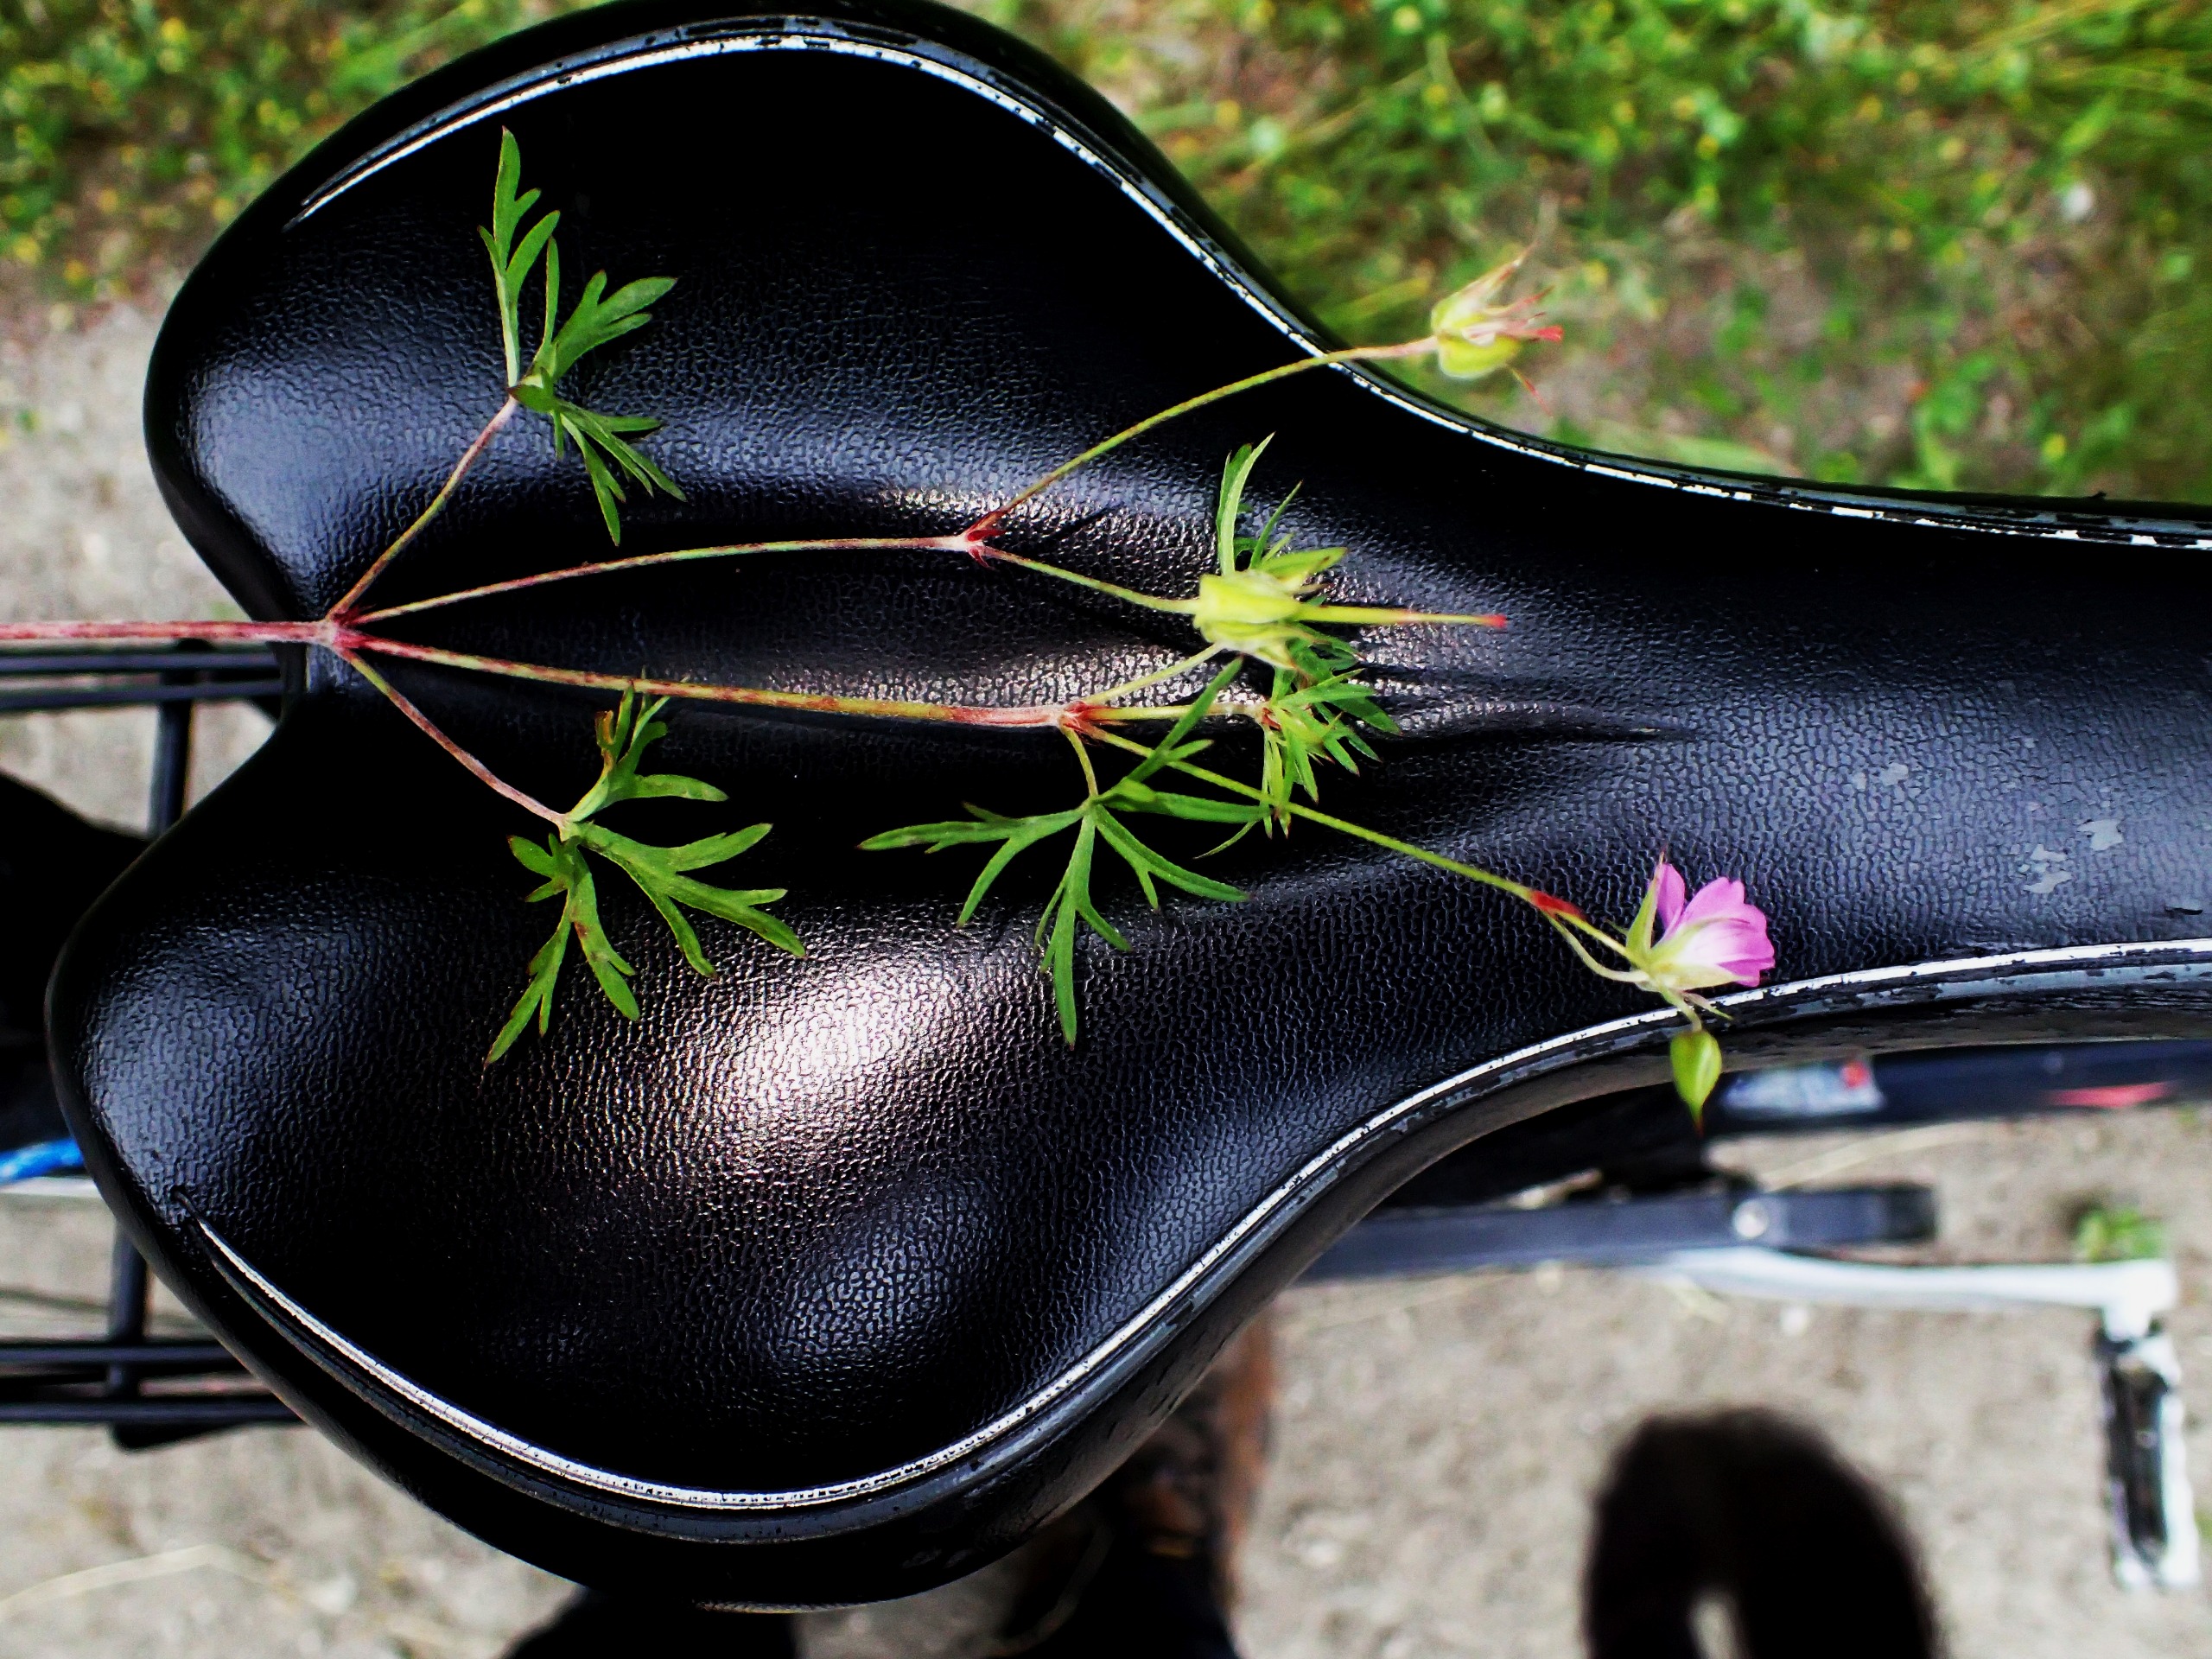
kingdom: Plantae
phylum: Tracheophyta
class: Magnoliopsida
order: Geraniales
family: Geraniaceae
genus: Geranium
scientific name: Geranium columbinum
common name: Storbægret storkenæb
